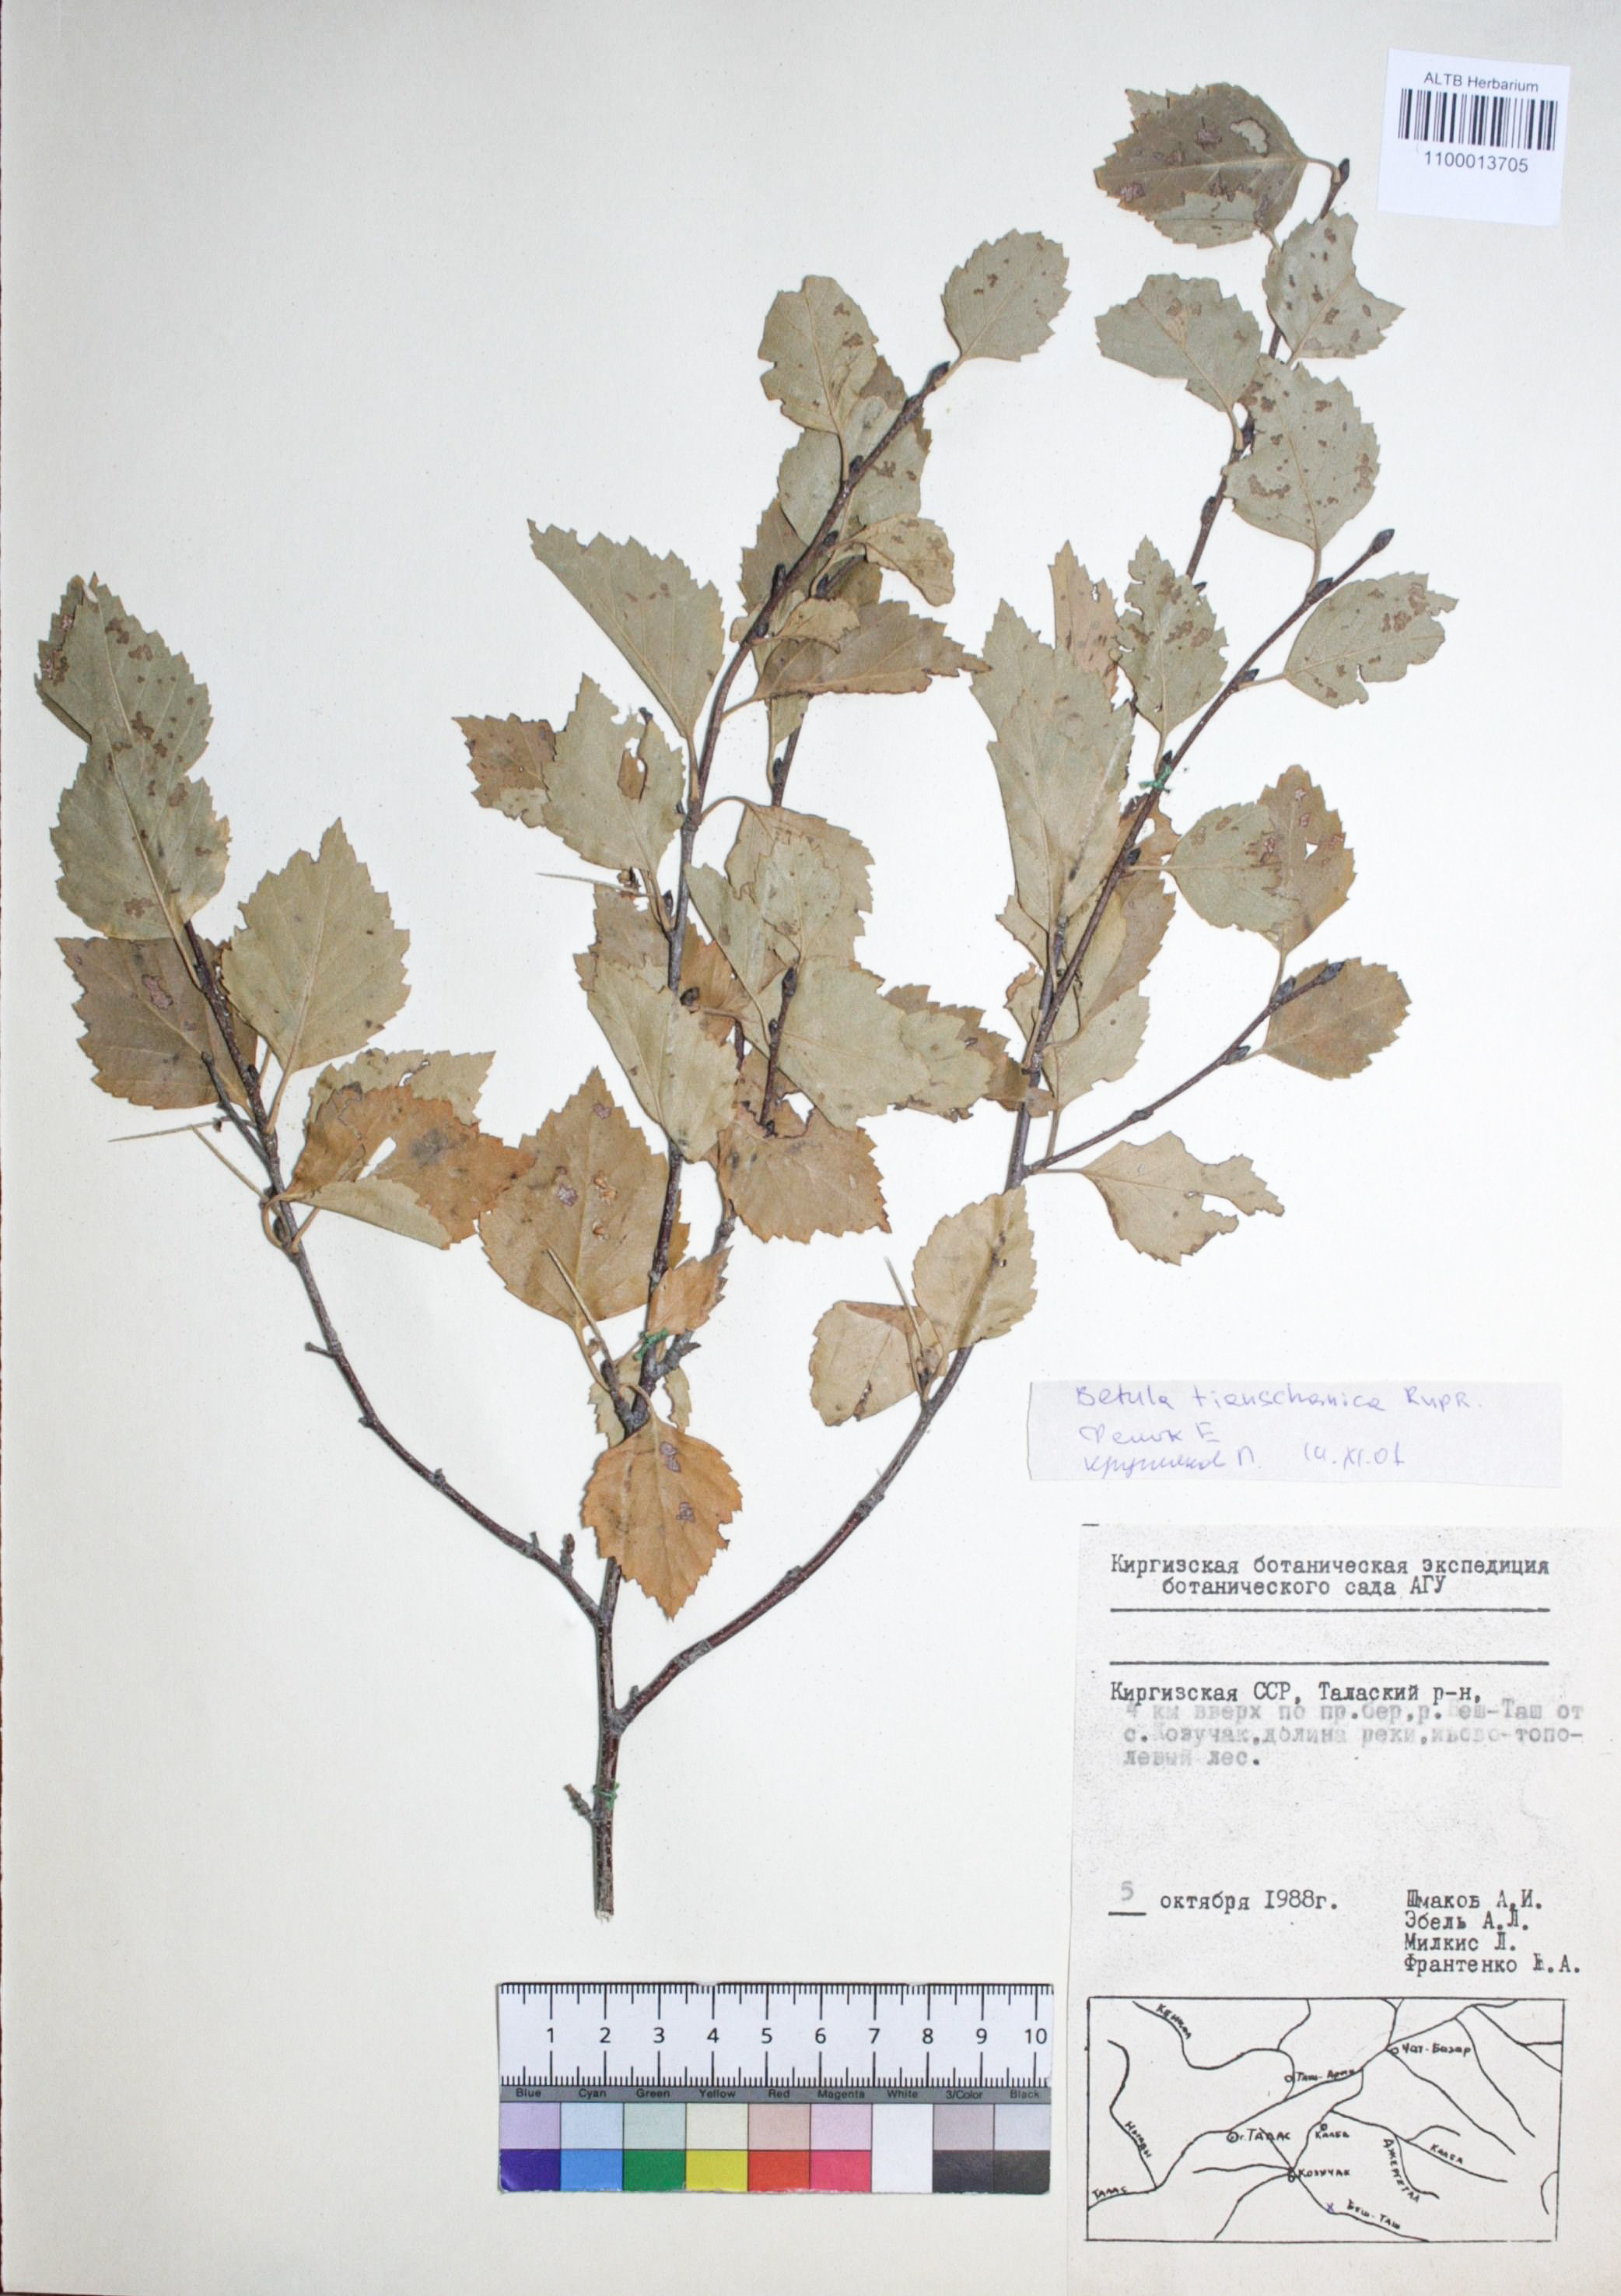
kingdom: Plantae
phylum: Tracheophyta
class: Magnoliopsida
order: Fagales
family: Betulaceae
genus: Betula
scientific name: Betula tianschanica
